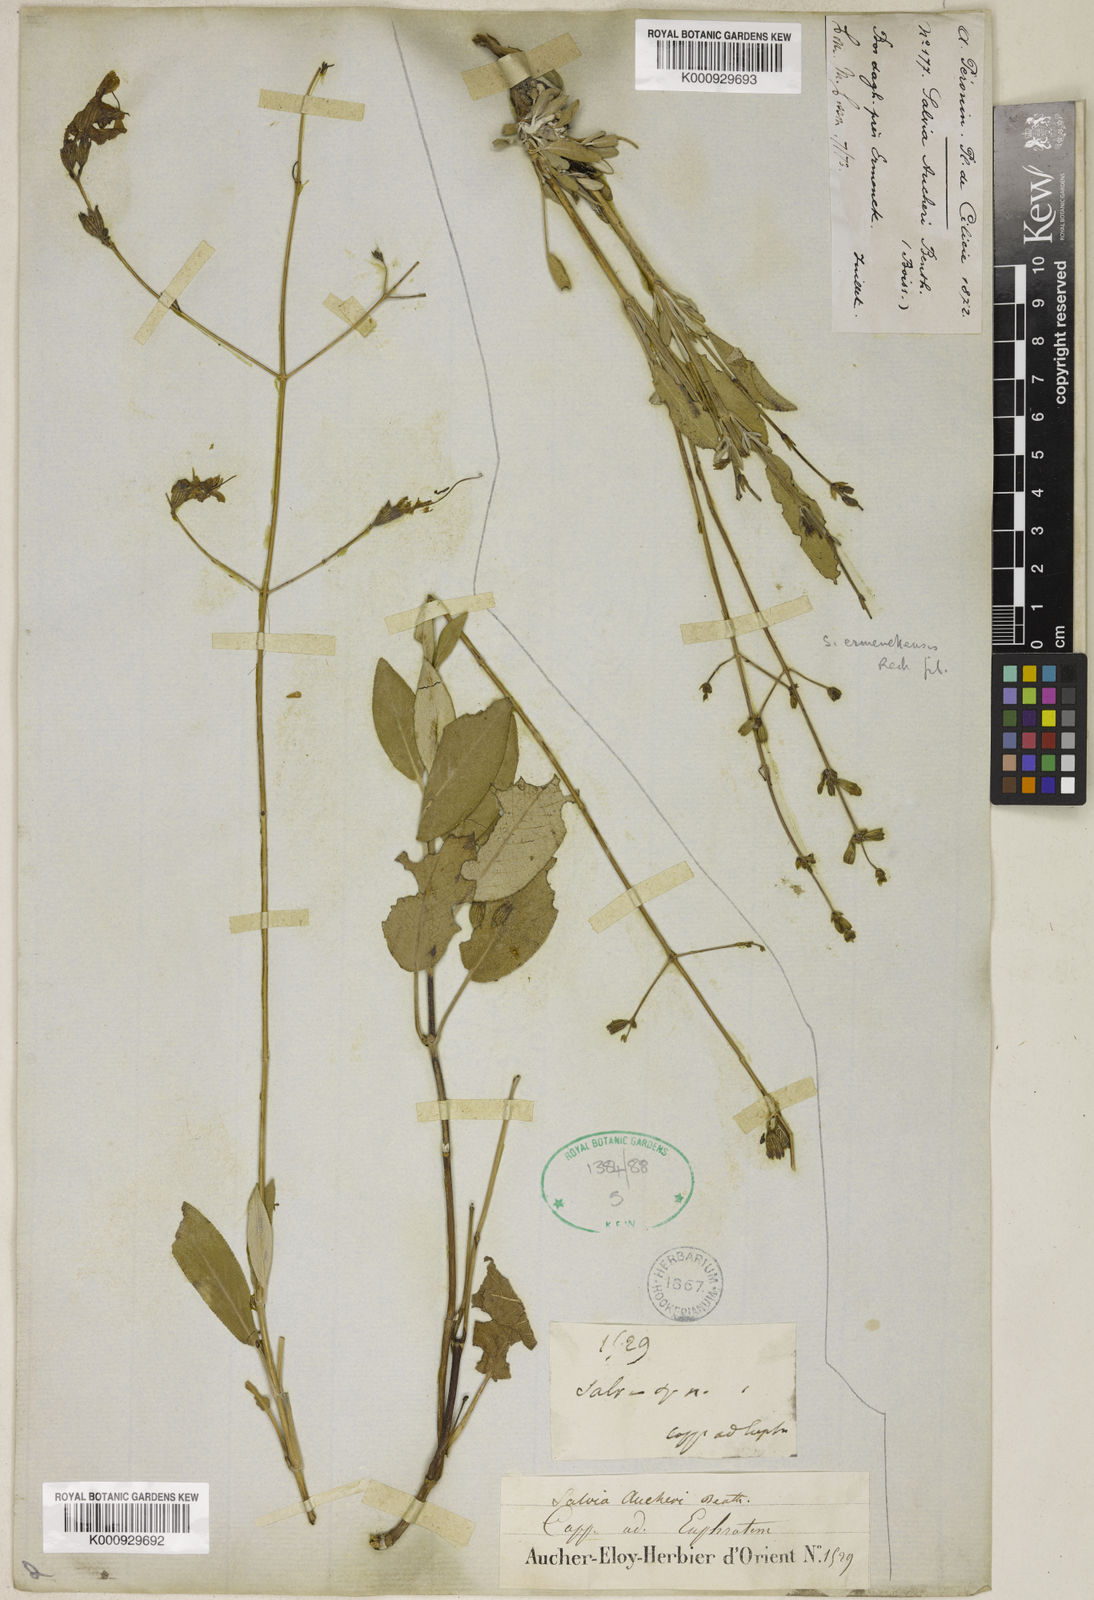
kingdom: Plantae
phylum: Tracheophyta
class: Magnoliopsida
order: Lamiales
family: Lamiaceae
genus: Salvia
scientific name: Salvia aucheri
